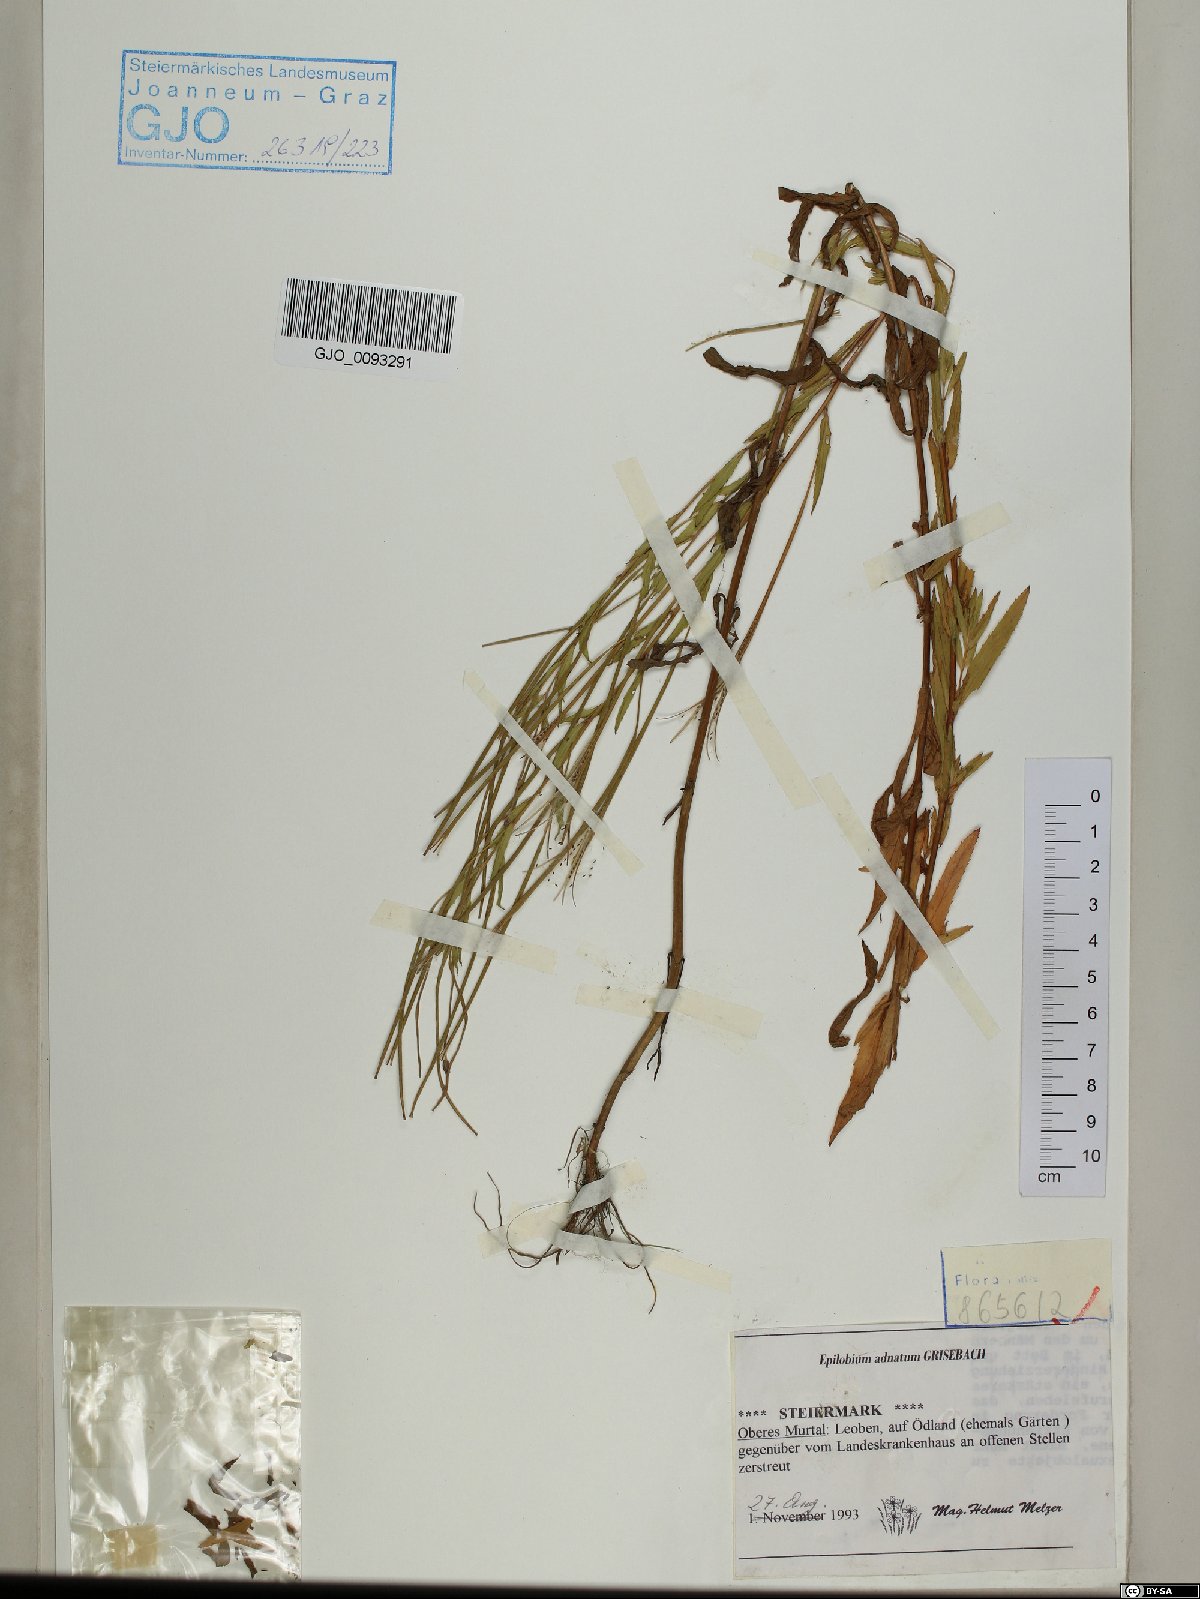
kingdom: Plantae
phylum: Tracheophyta
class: Magnoliopsida
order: Myrtales
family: Onagraceae
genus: Epilobium
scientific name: Epilobium tetragonum
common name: Square-stemmed willowherb
